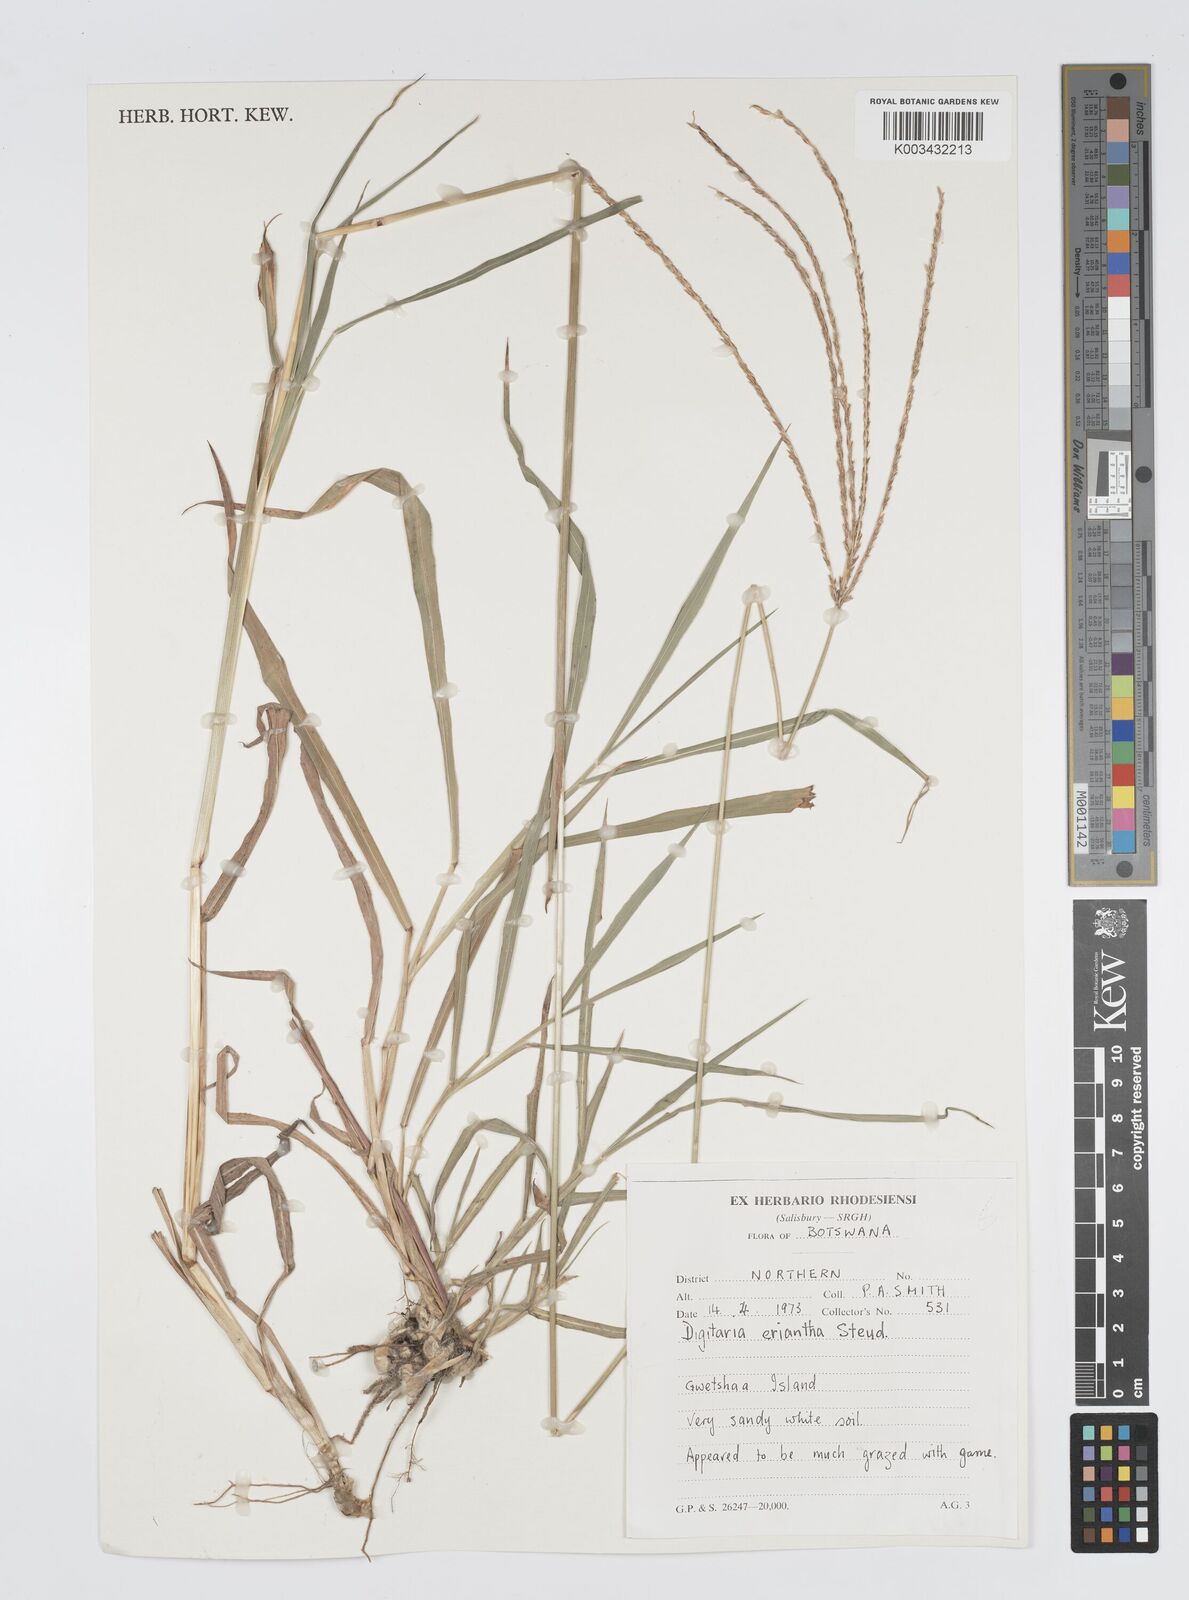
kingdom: Plantae
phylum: Tracheophyta
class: Liliopsida
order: Poales
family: Poaceae
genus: Digitaria
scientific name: Digitaria milanjiana
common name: Madagascar crabgrass
